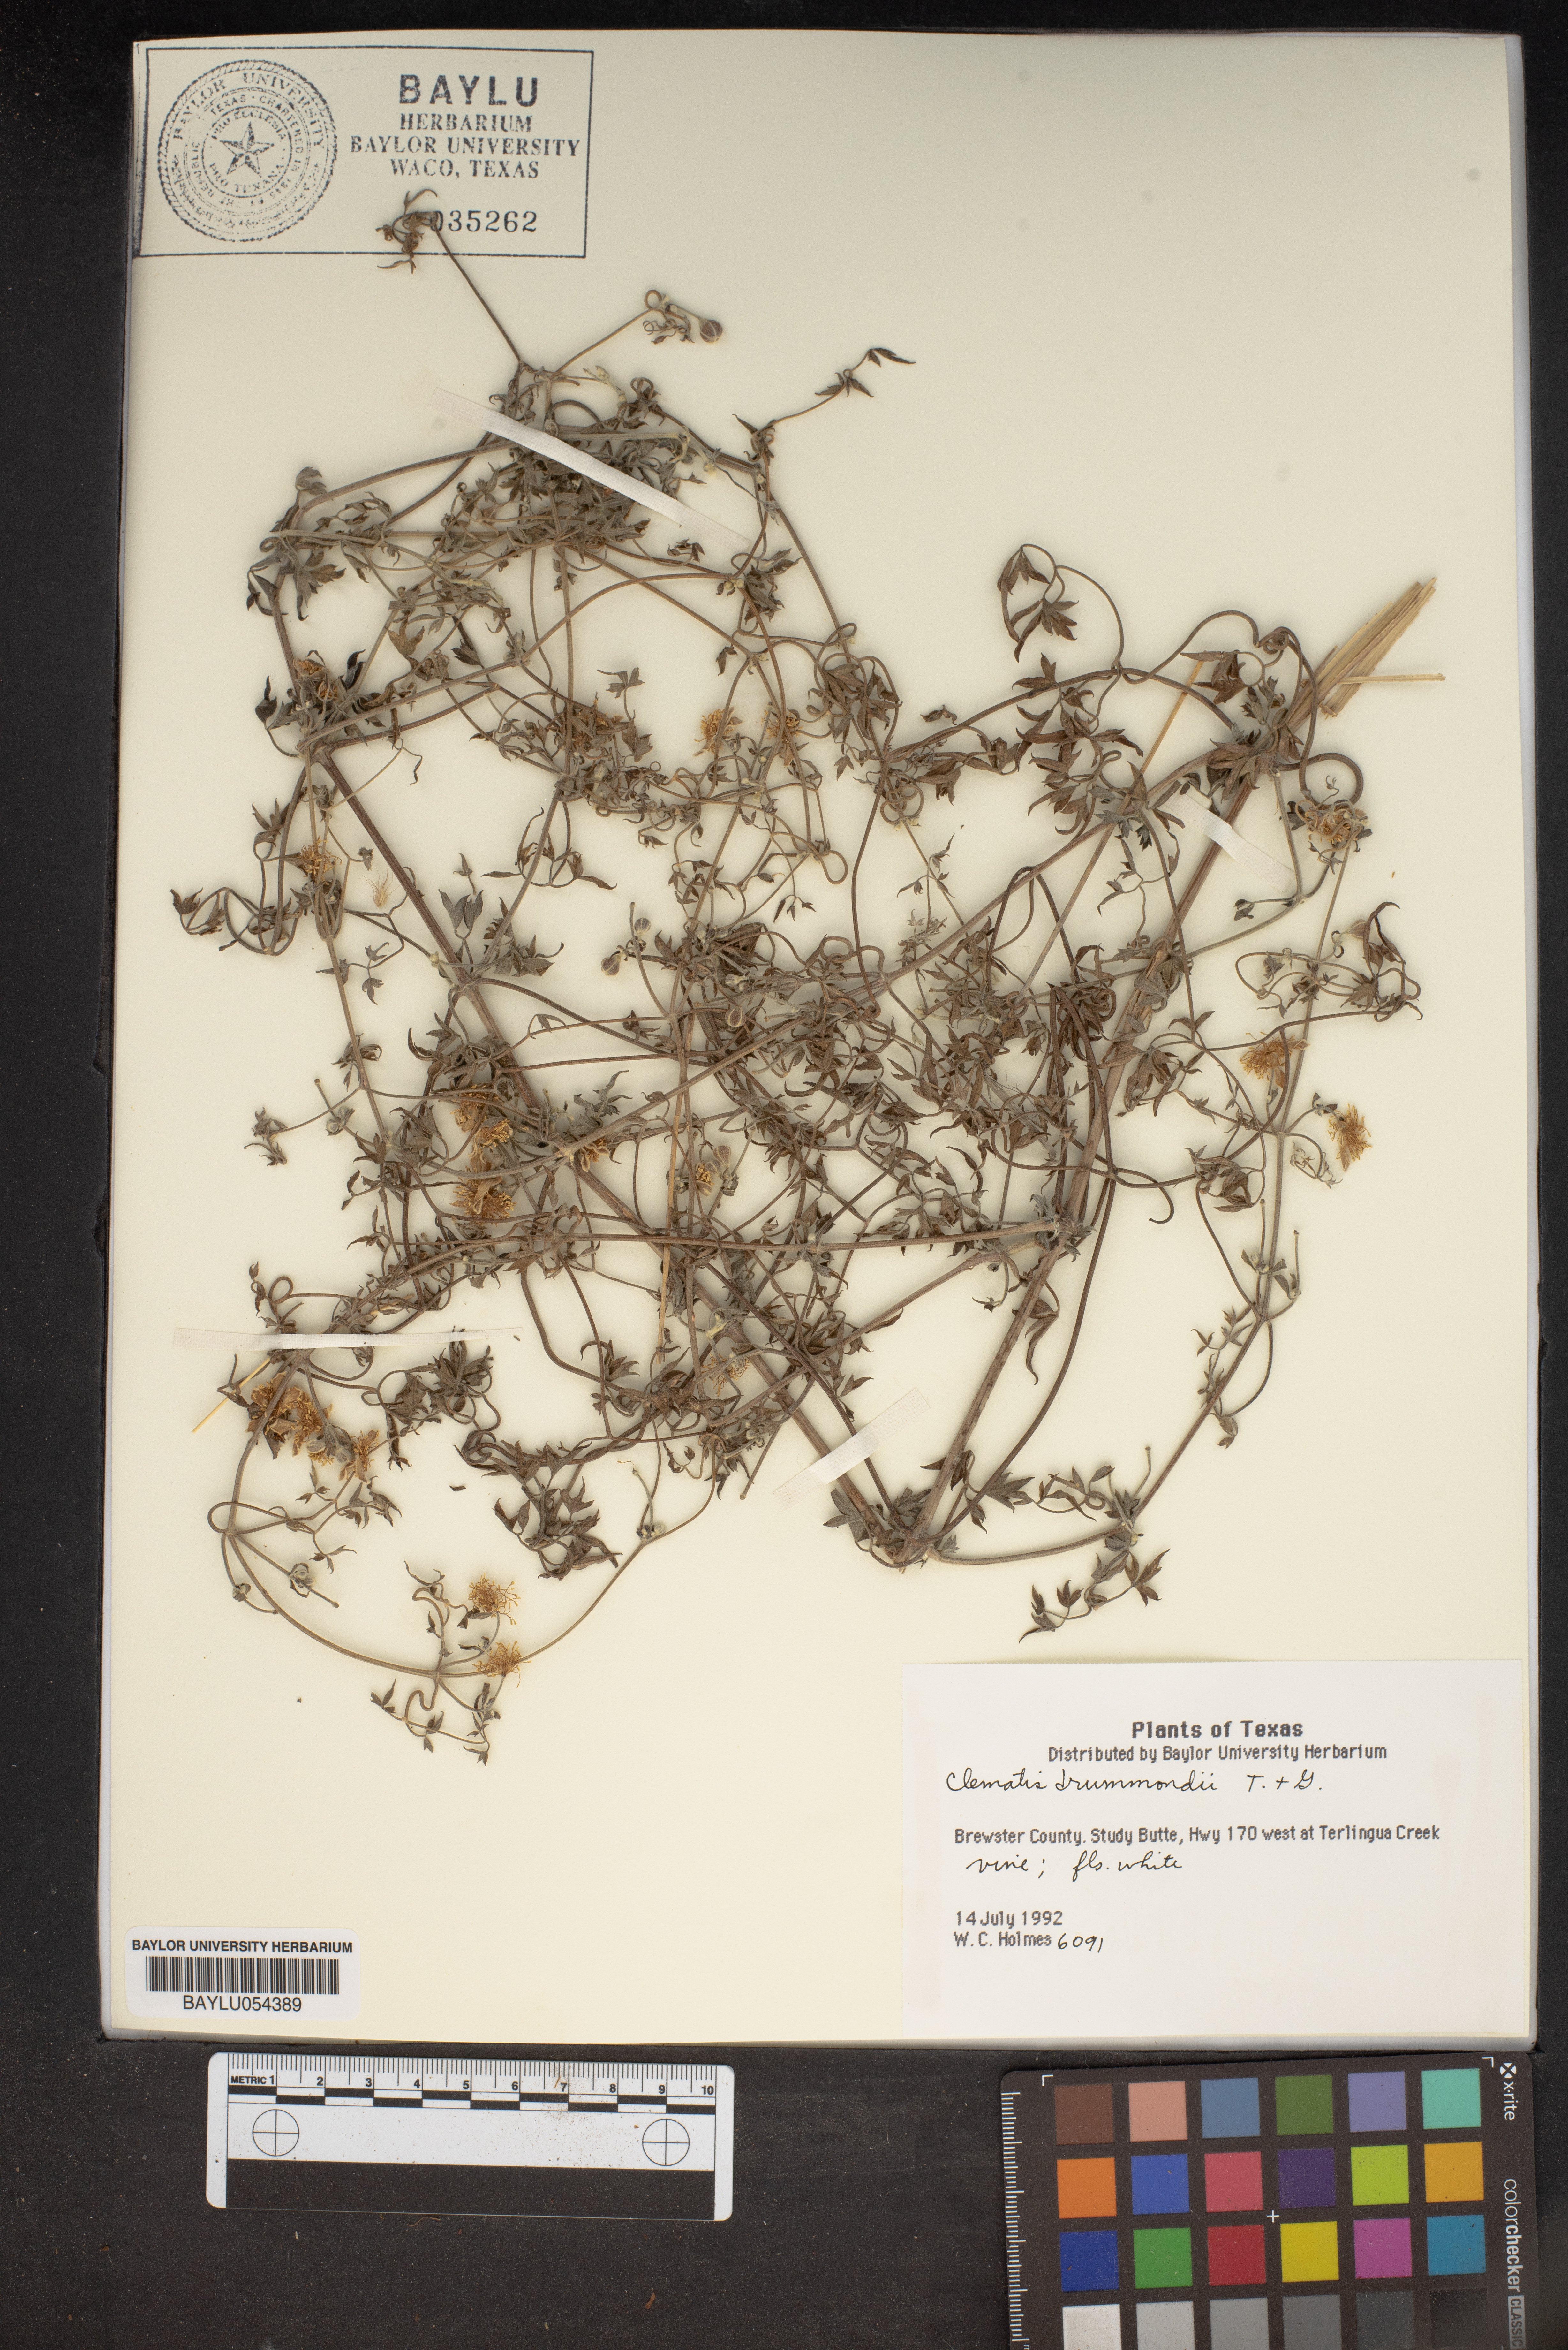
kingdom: Plantae
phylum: Tracheophyta
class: Magnoliopsida
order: Ranunculales
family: Ranunculaceae
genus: Clematis
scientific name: Clematis drummondii
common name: Texas virgin's bower
